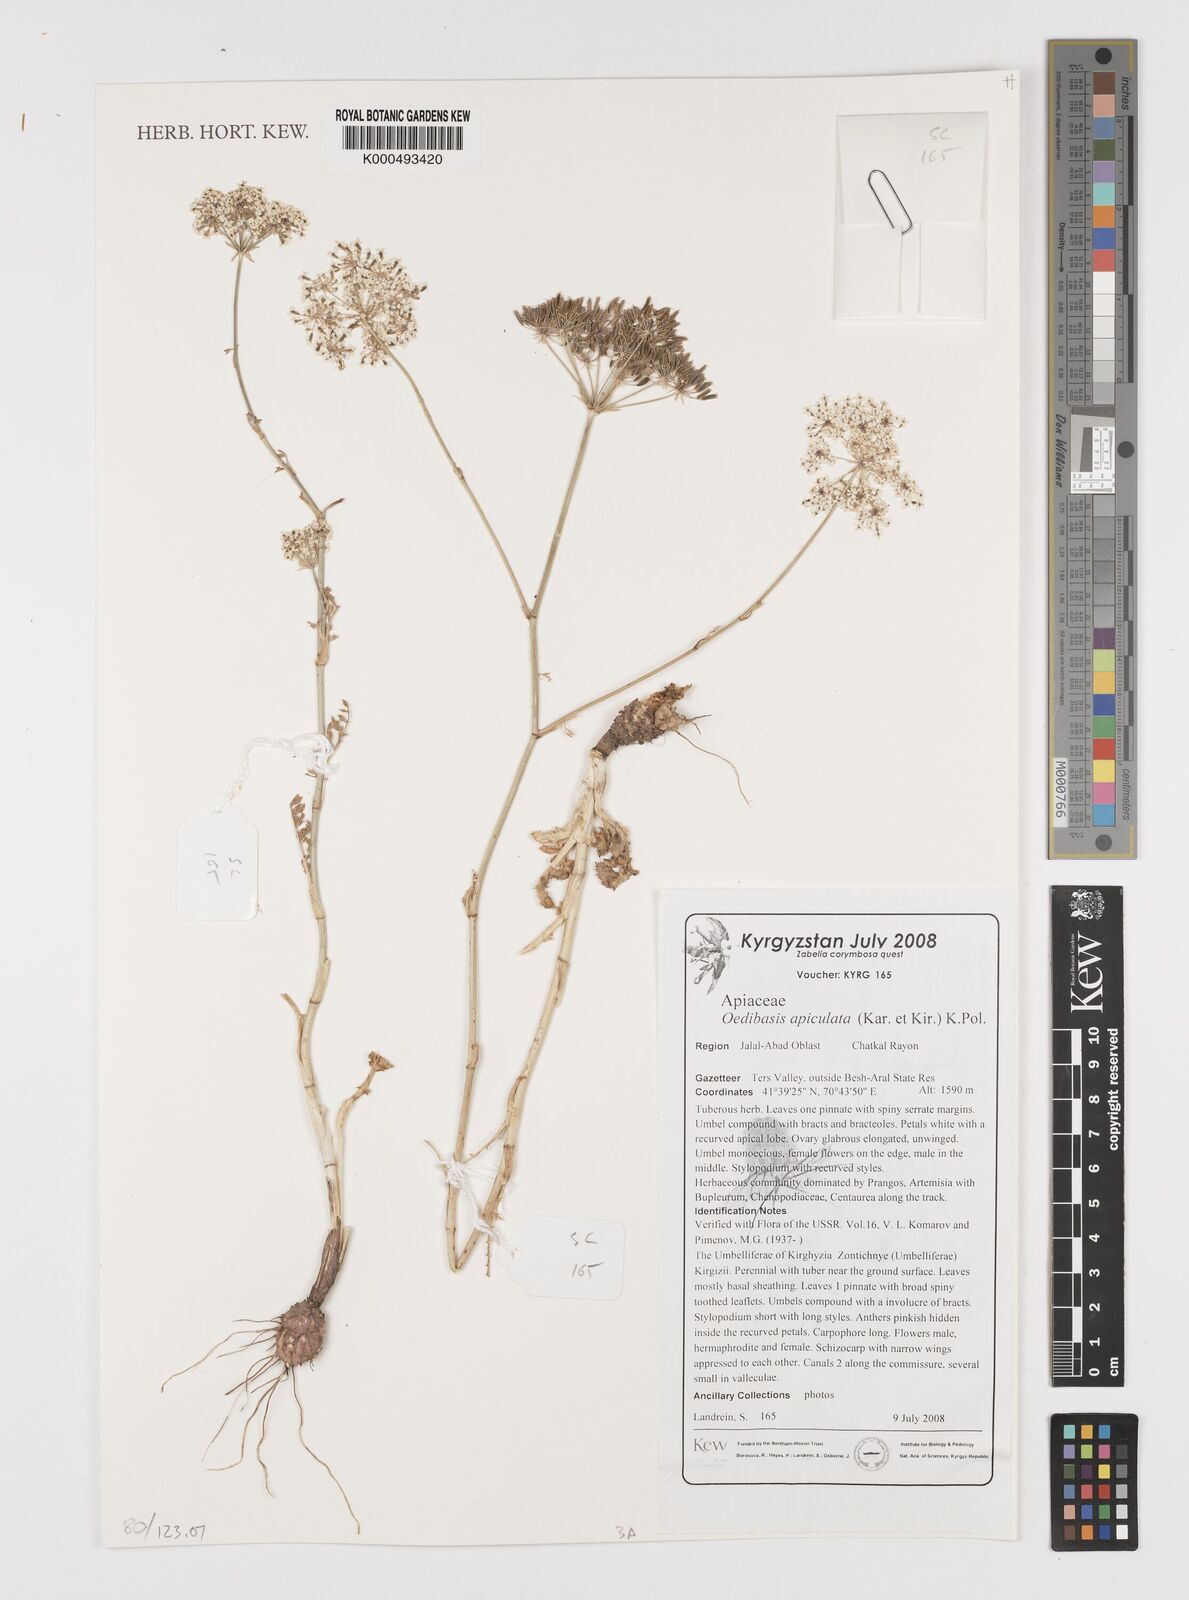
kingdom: Plantae
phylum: Tracheophyta
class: Magnoliopsida
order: Apiales
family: Apiaceae
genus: Oedibasis
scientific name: Oedibasis apiculata
